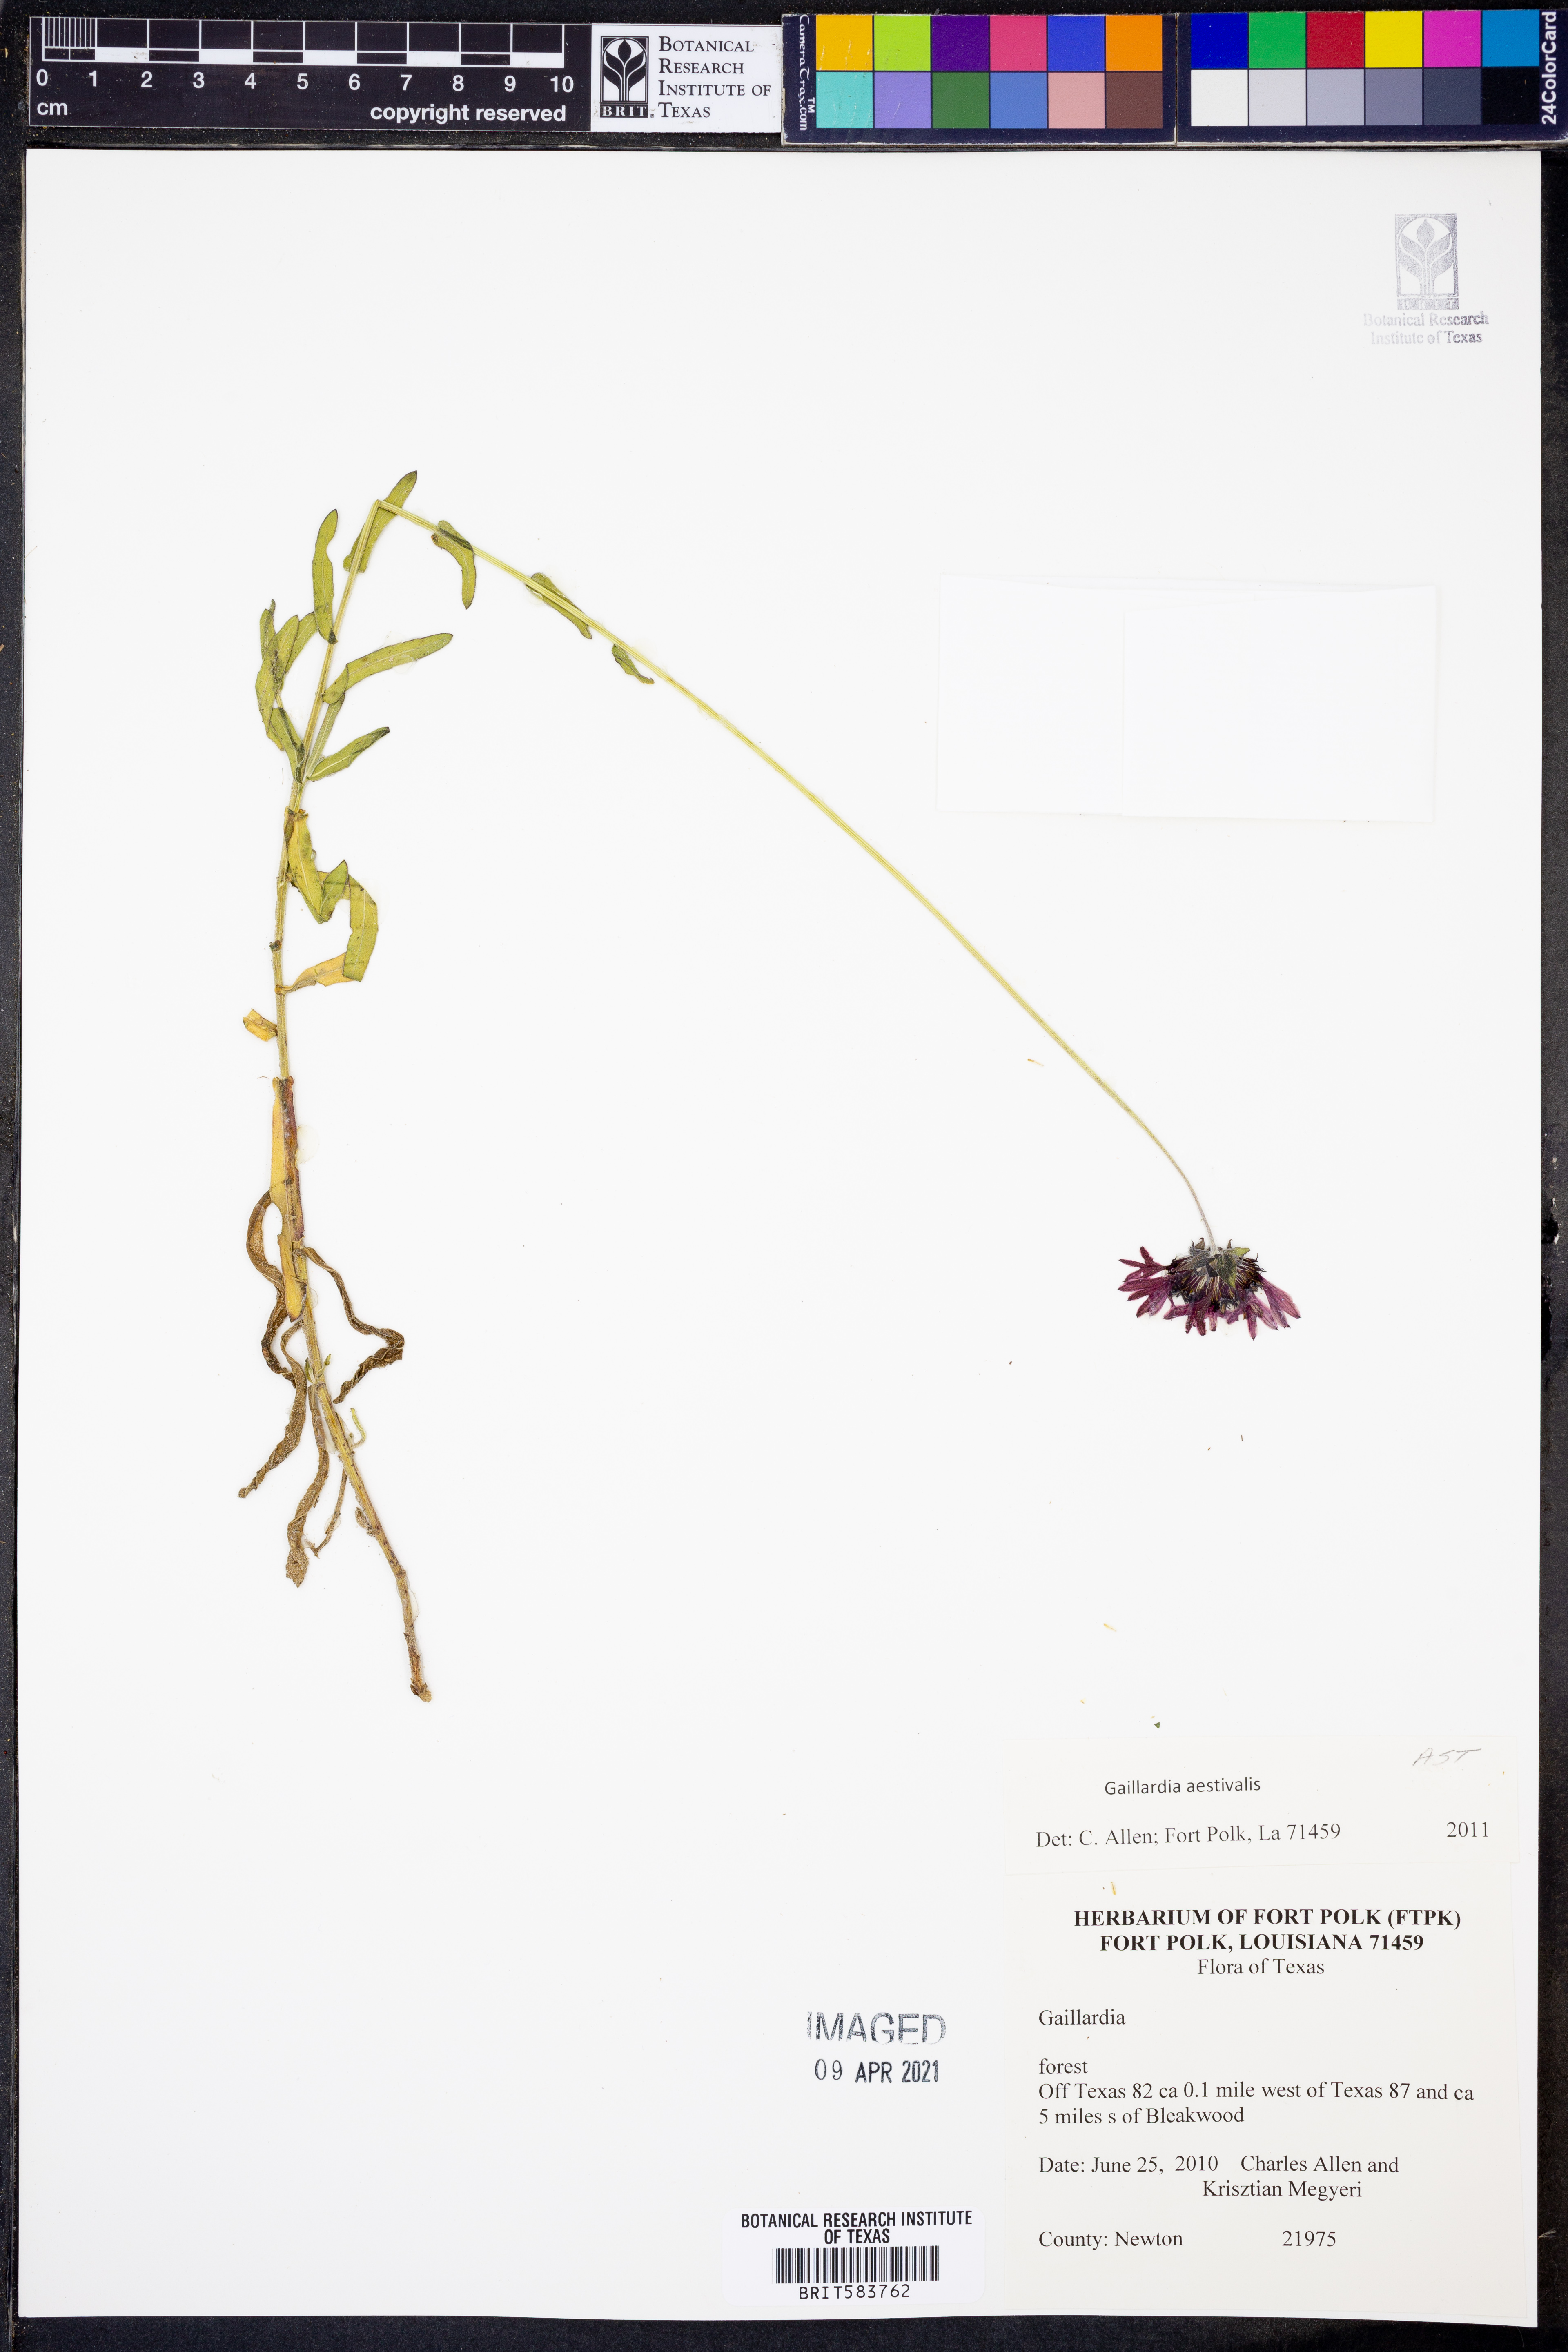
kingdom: Plantae
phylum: Tracheophyta
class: Magnoliopsida
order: Asterales
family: Asteraceae
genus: Gaillardia
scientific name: Gaillardia aestivalis
